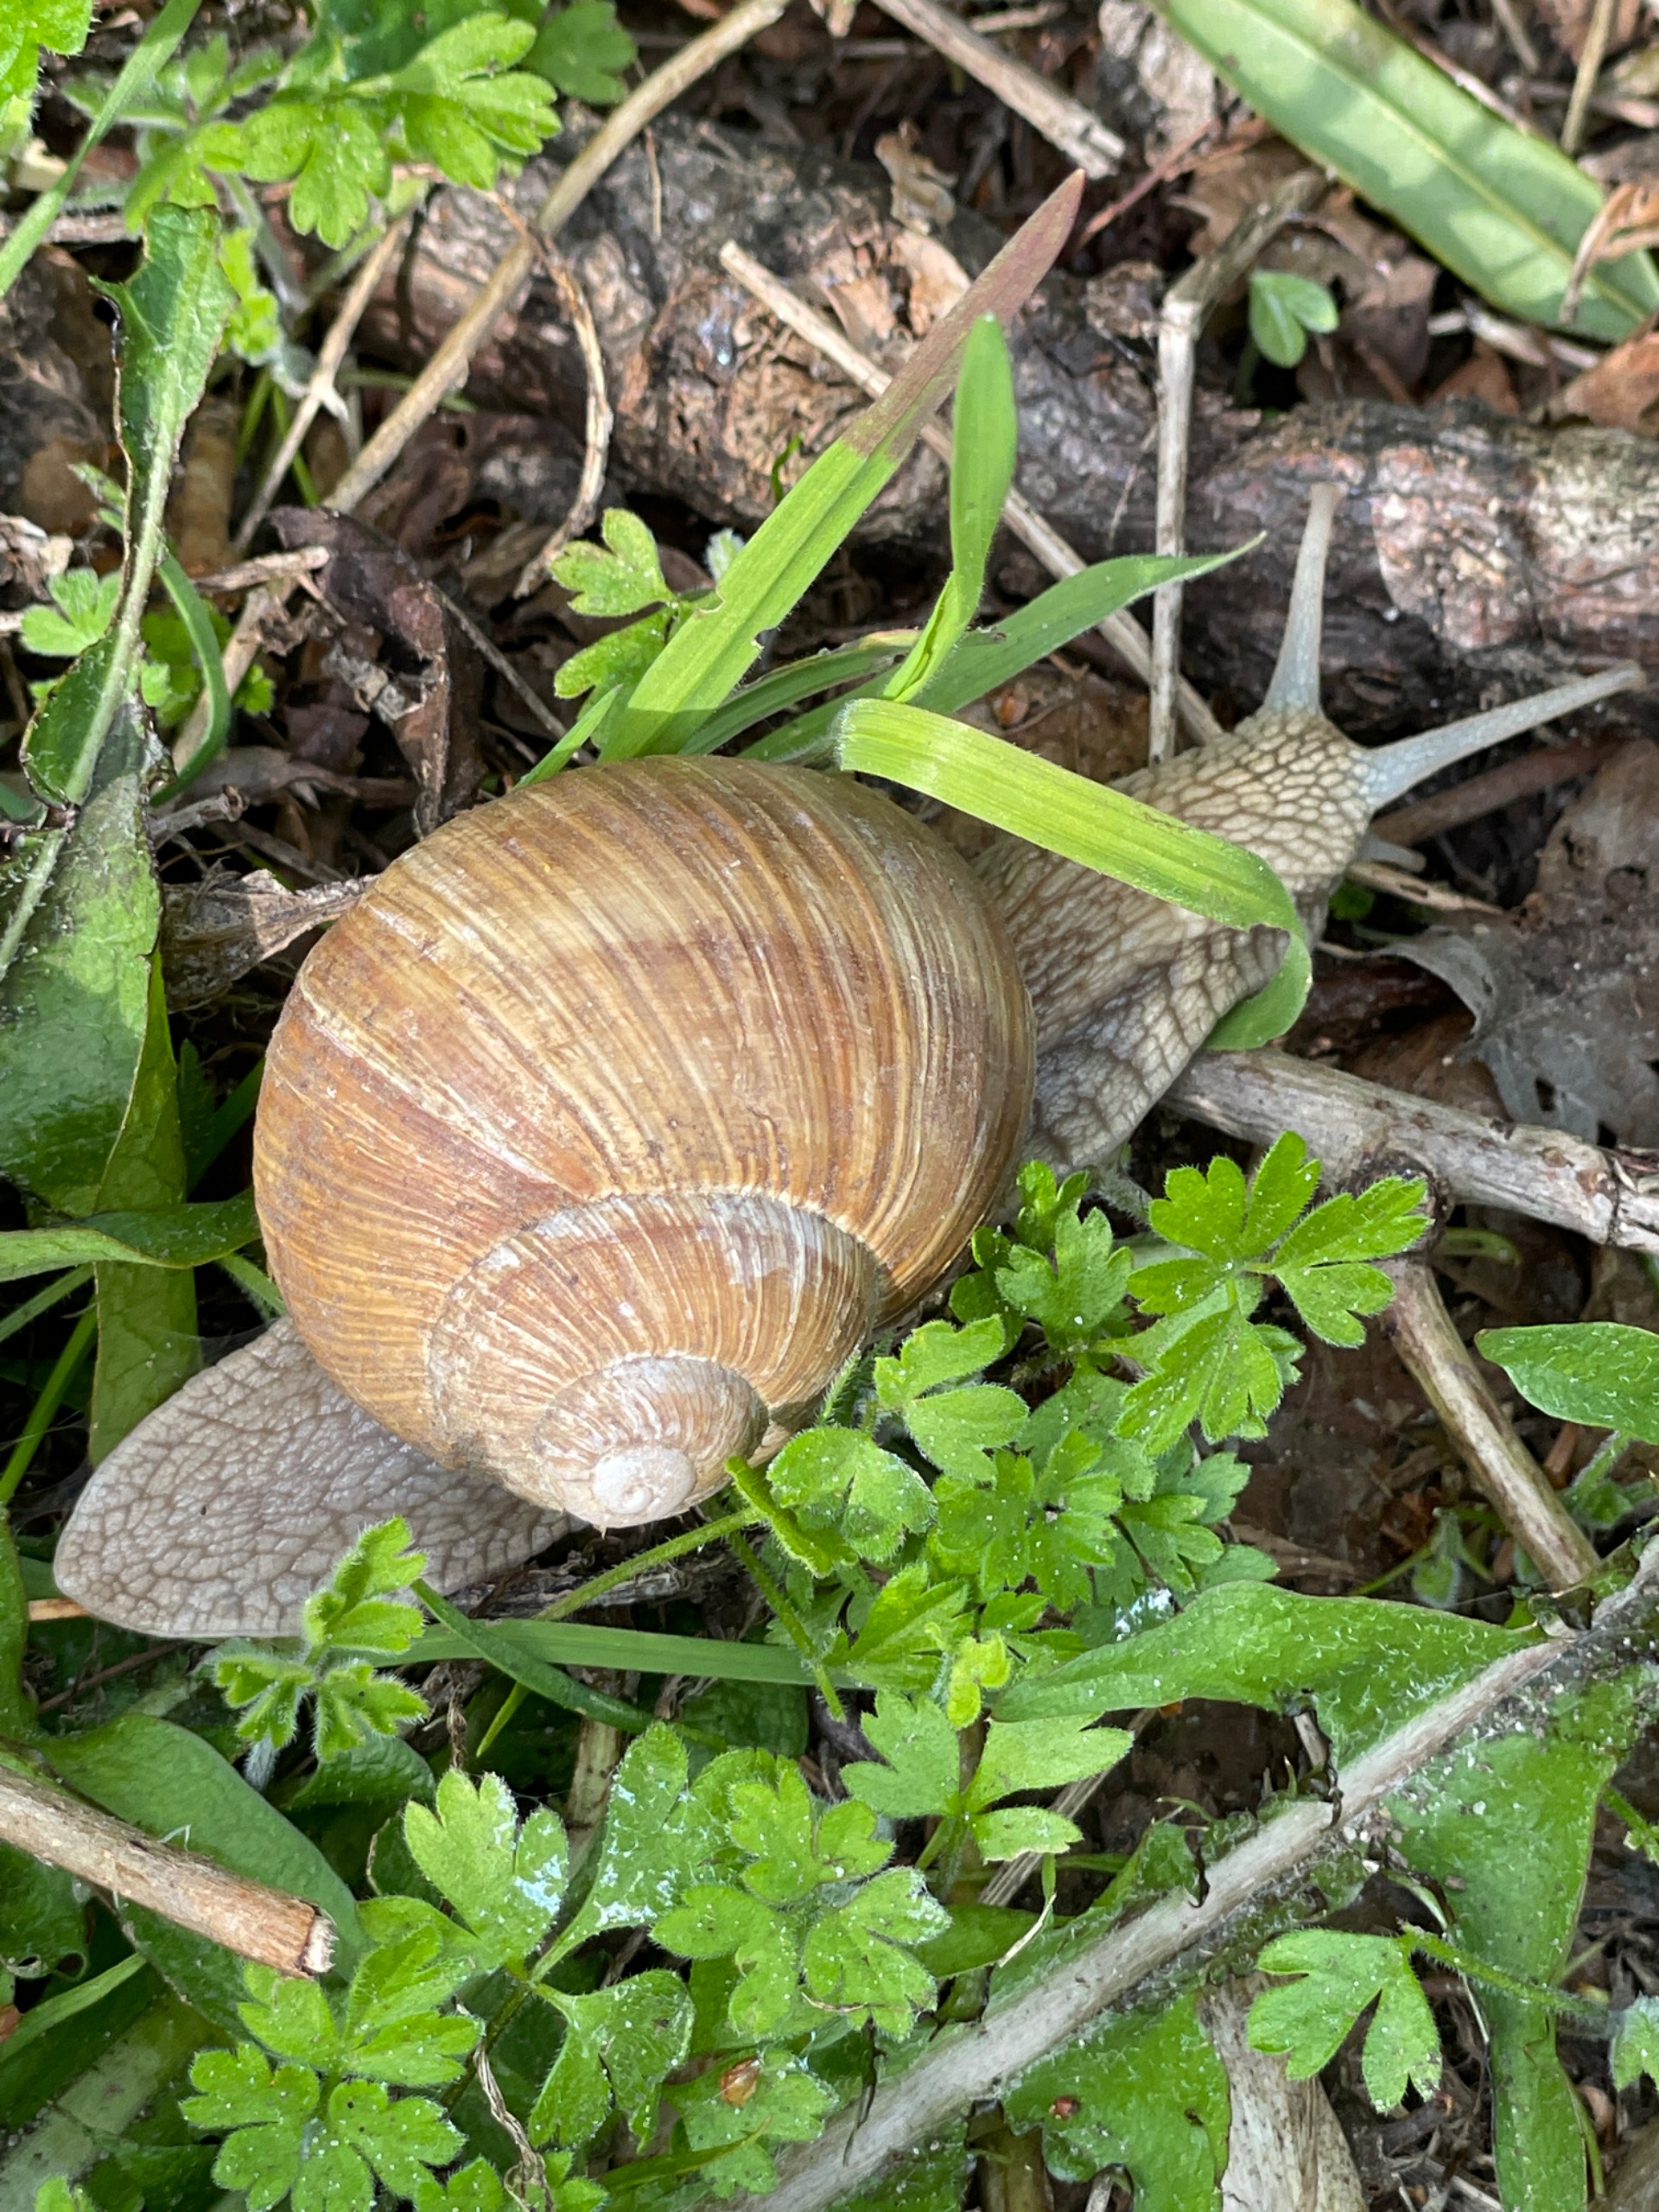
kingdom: Animalia
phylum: Mollusca
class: Gastropoda
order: Stylommatophora
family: Helicidae
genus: Helix
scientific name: Helix pomatia
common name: Vinbjergsnegl
